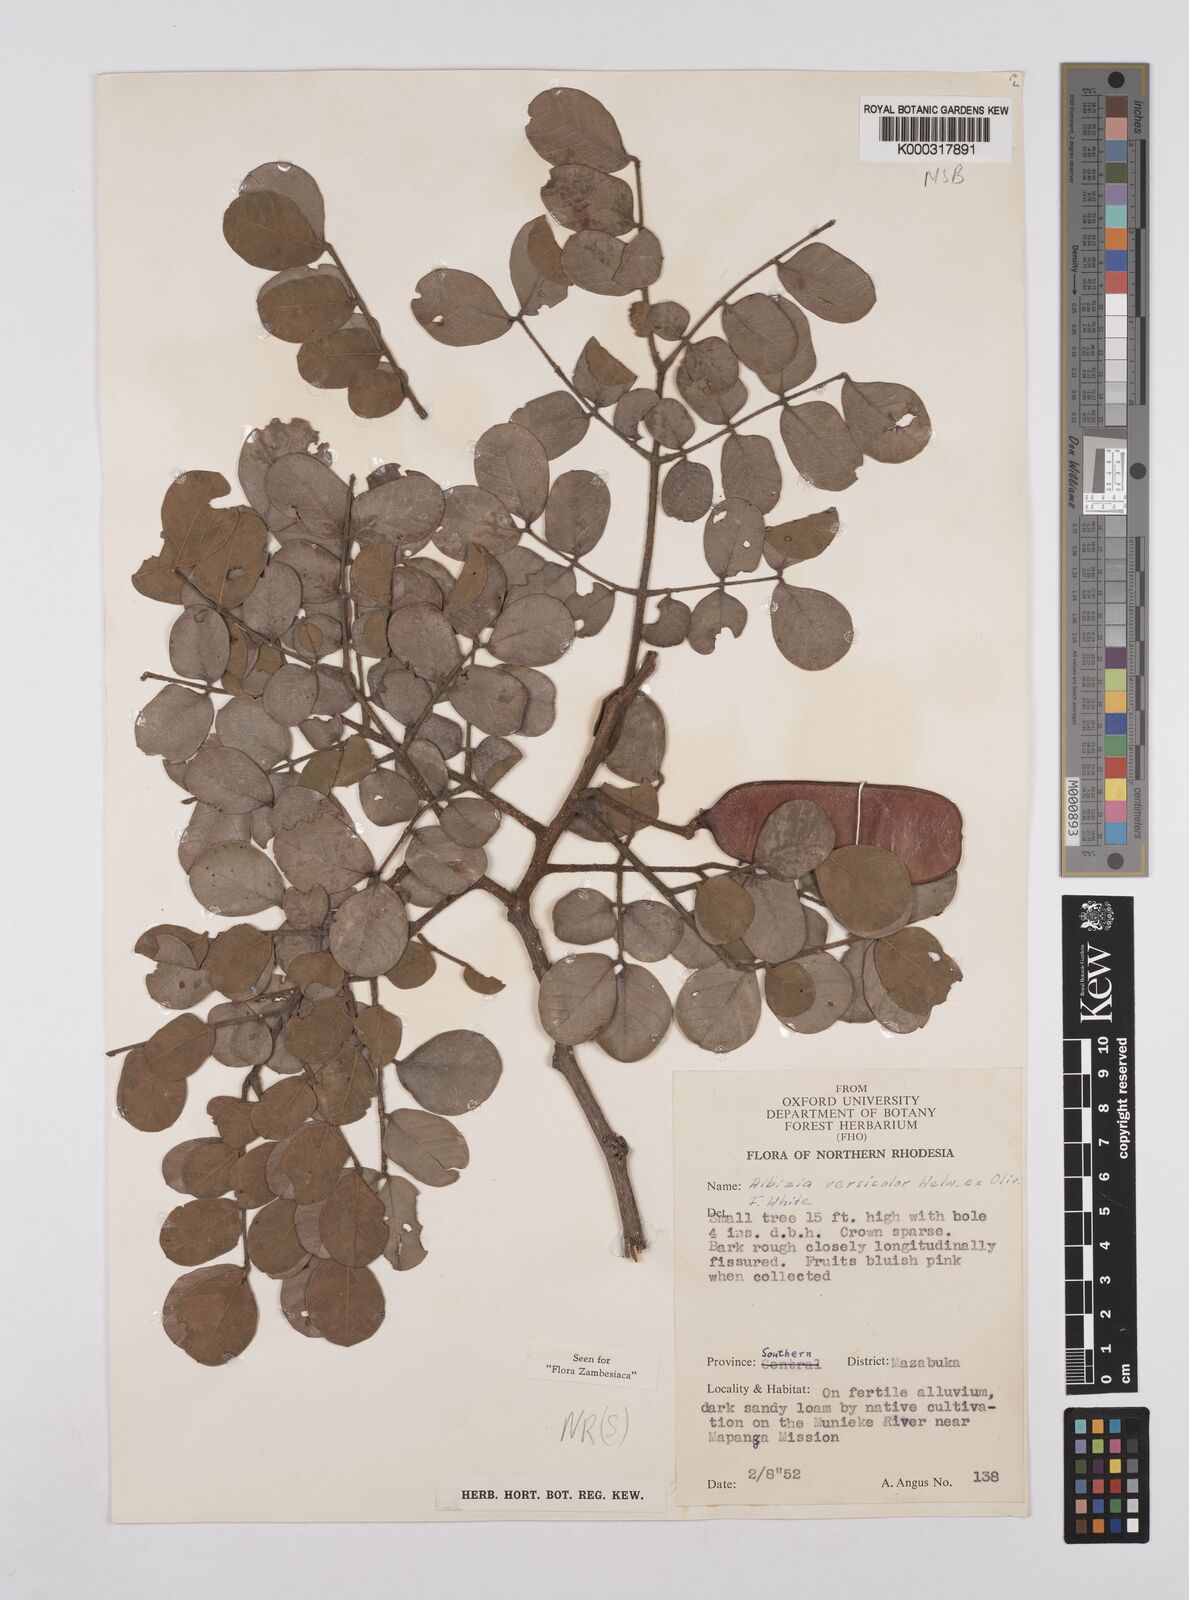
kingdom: Plantae
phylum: Tracheophyta
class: Magnoliopsida
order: Fabales
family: Fabaceae
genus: Albizia
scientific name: Albizia versicolor
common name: Poisonpod
